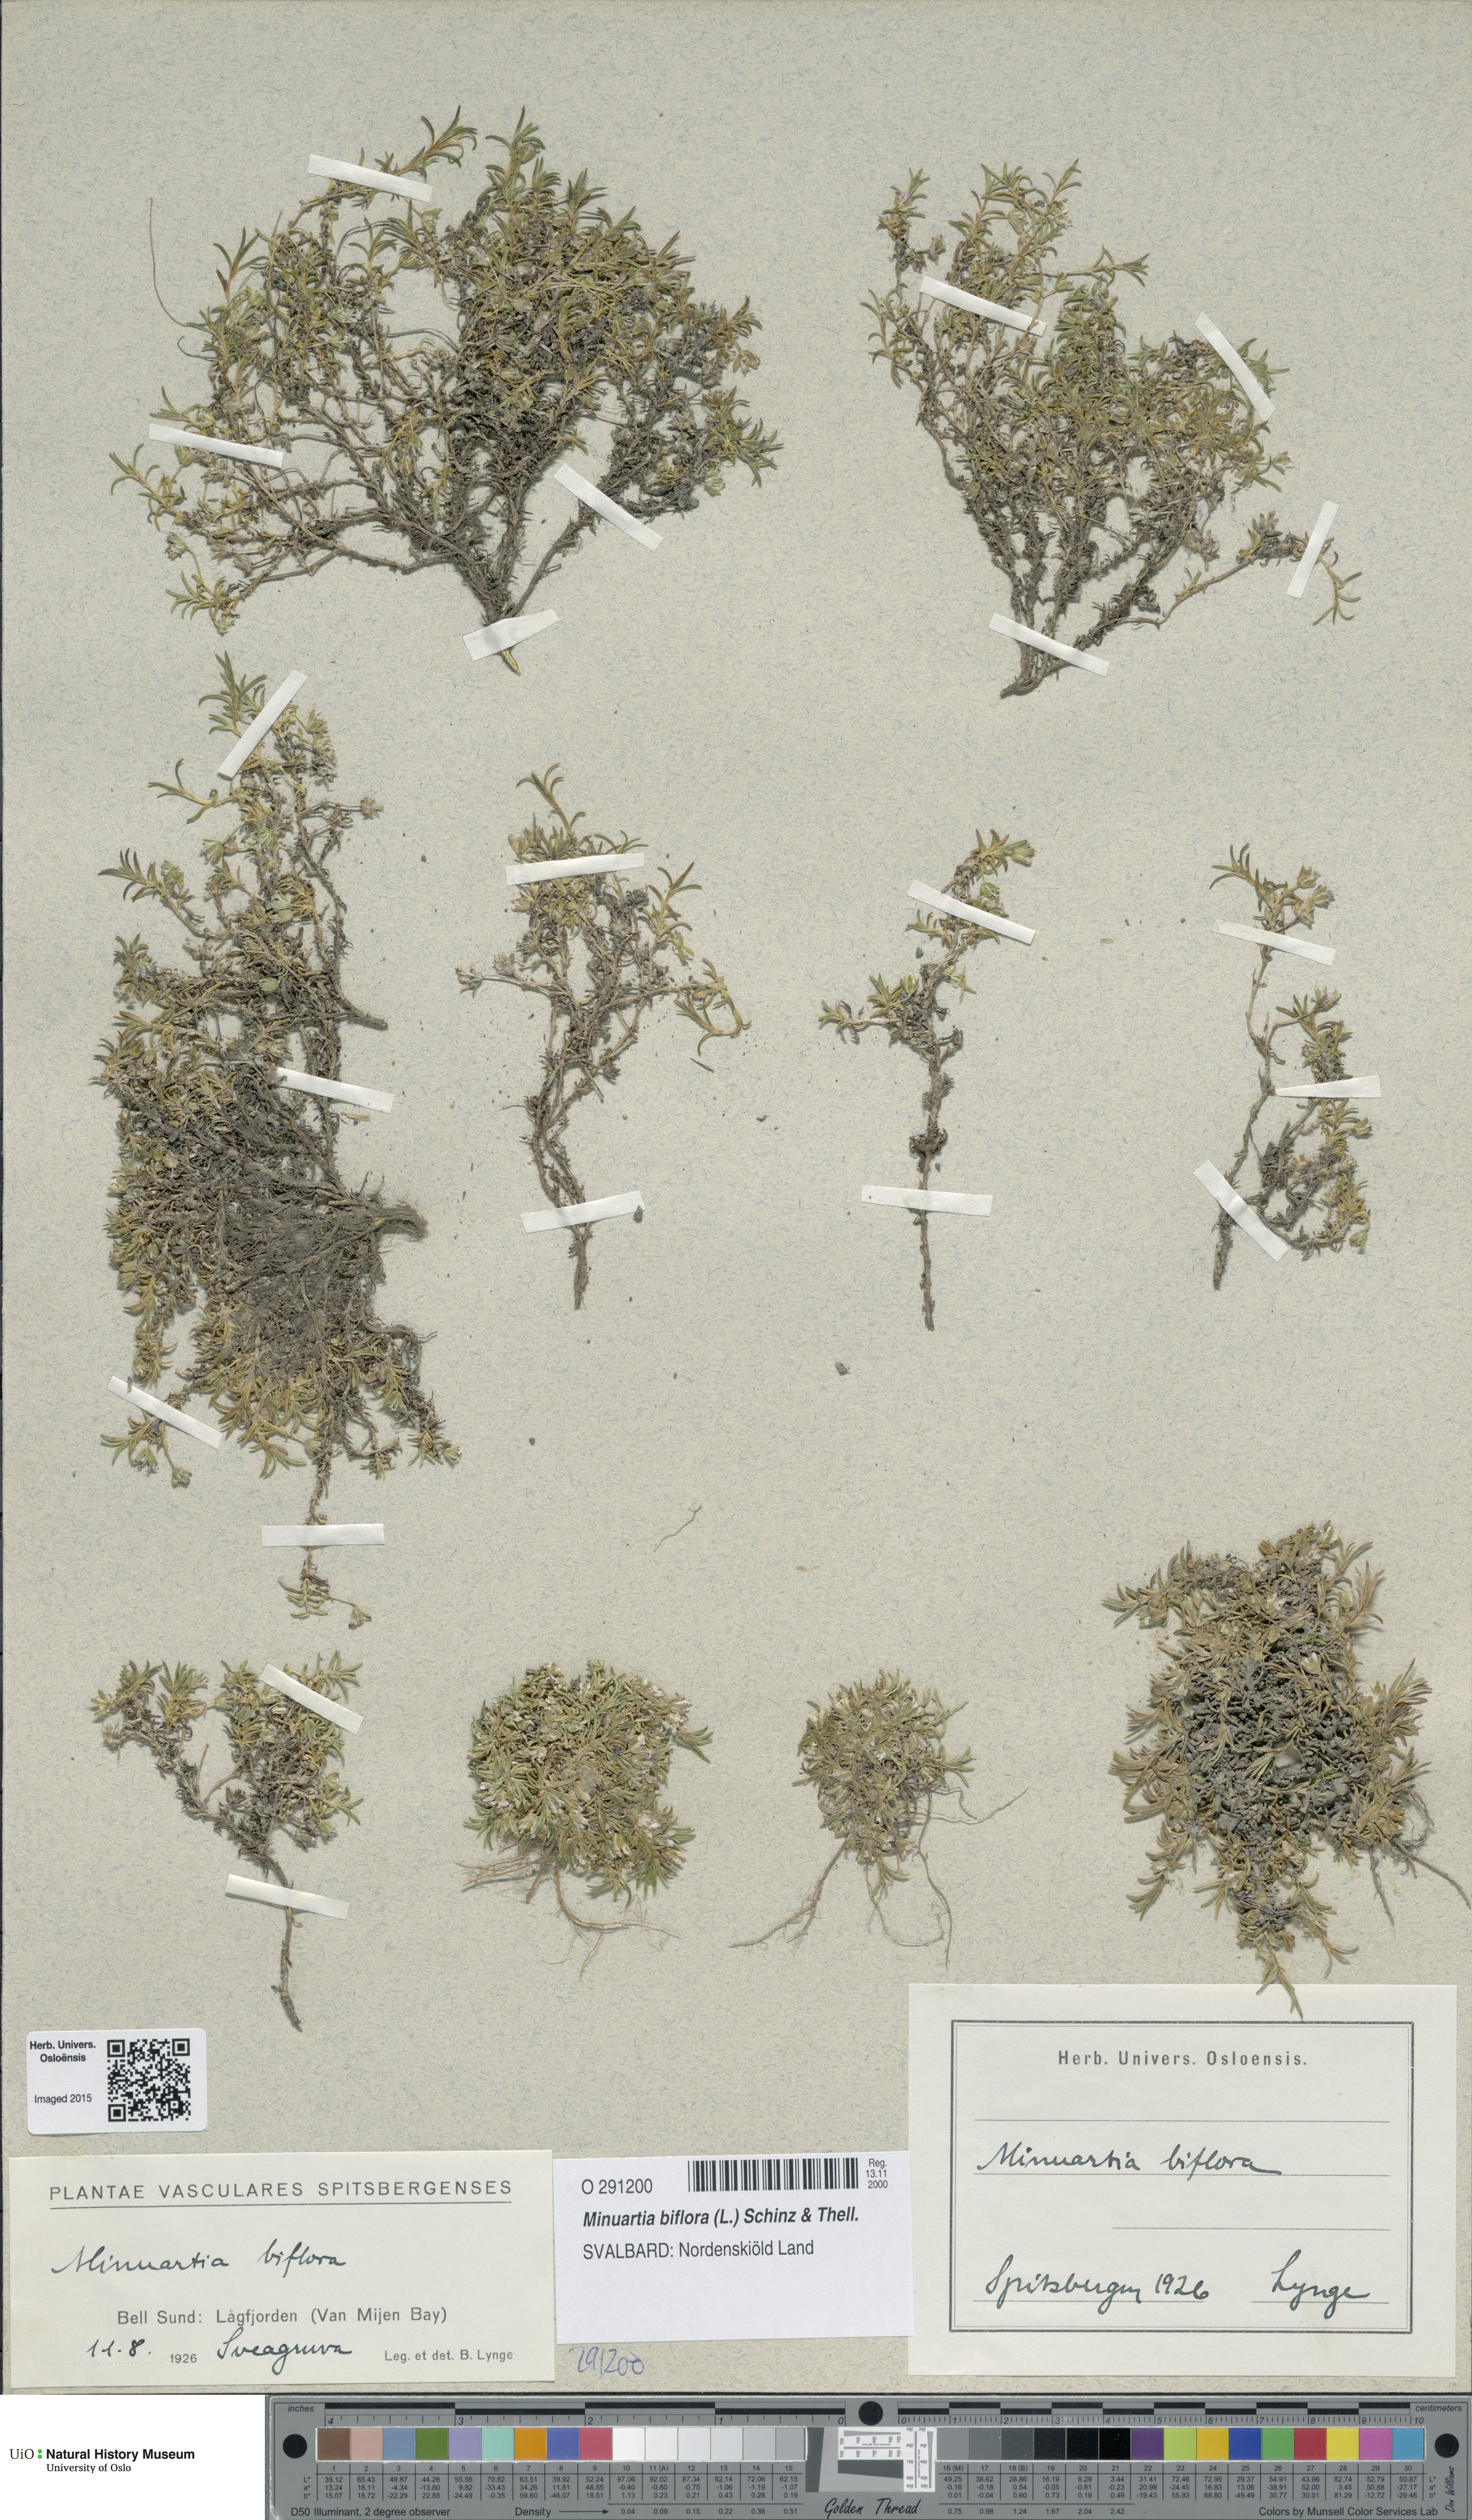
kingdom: Plantae
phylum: Tracheophyta
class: Magnoliopsida
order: Caryophyllales
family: Caryophyllaceae
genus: Cherleria
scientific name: Cherleria biflora
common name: Mountain sandwort
